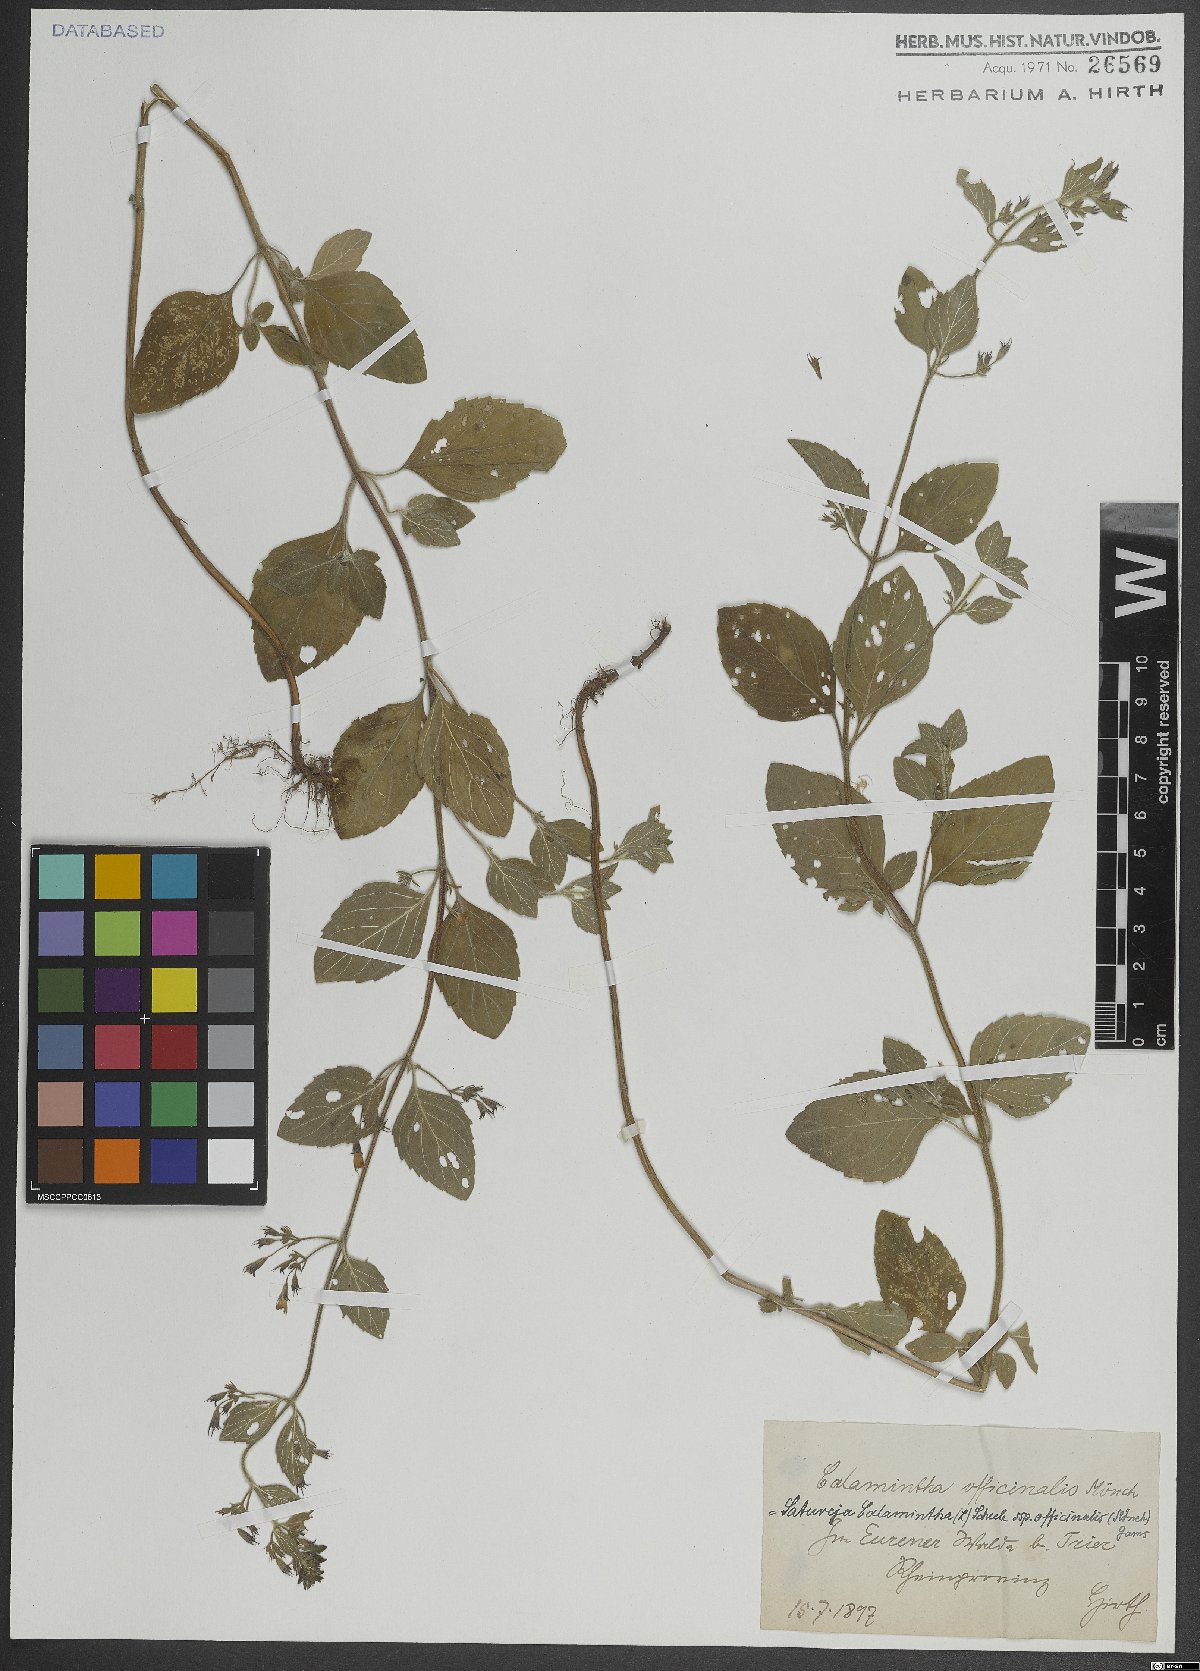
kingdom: Plantae
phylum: Tracheophyta
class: Magnoliopsida
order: Lamiales
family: Lamiaceae
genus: Clinopodium
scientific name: Clinopodium nepeta
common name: Lesser calamint
